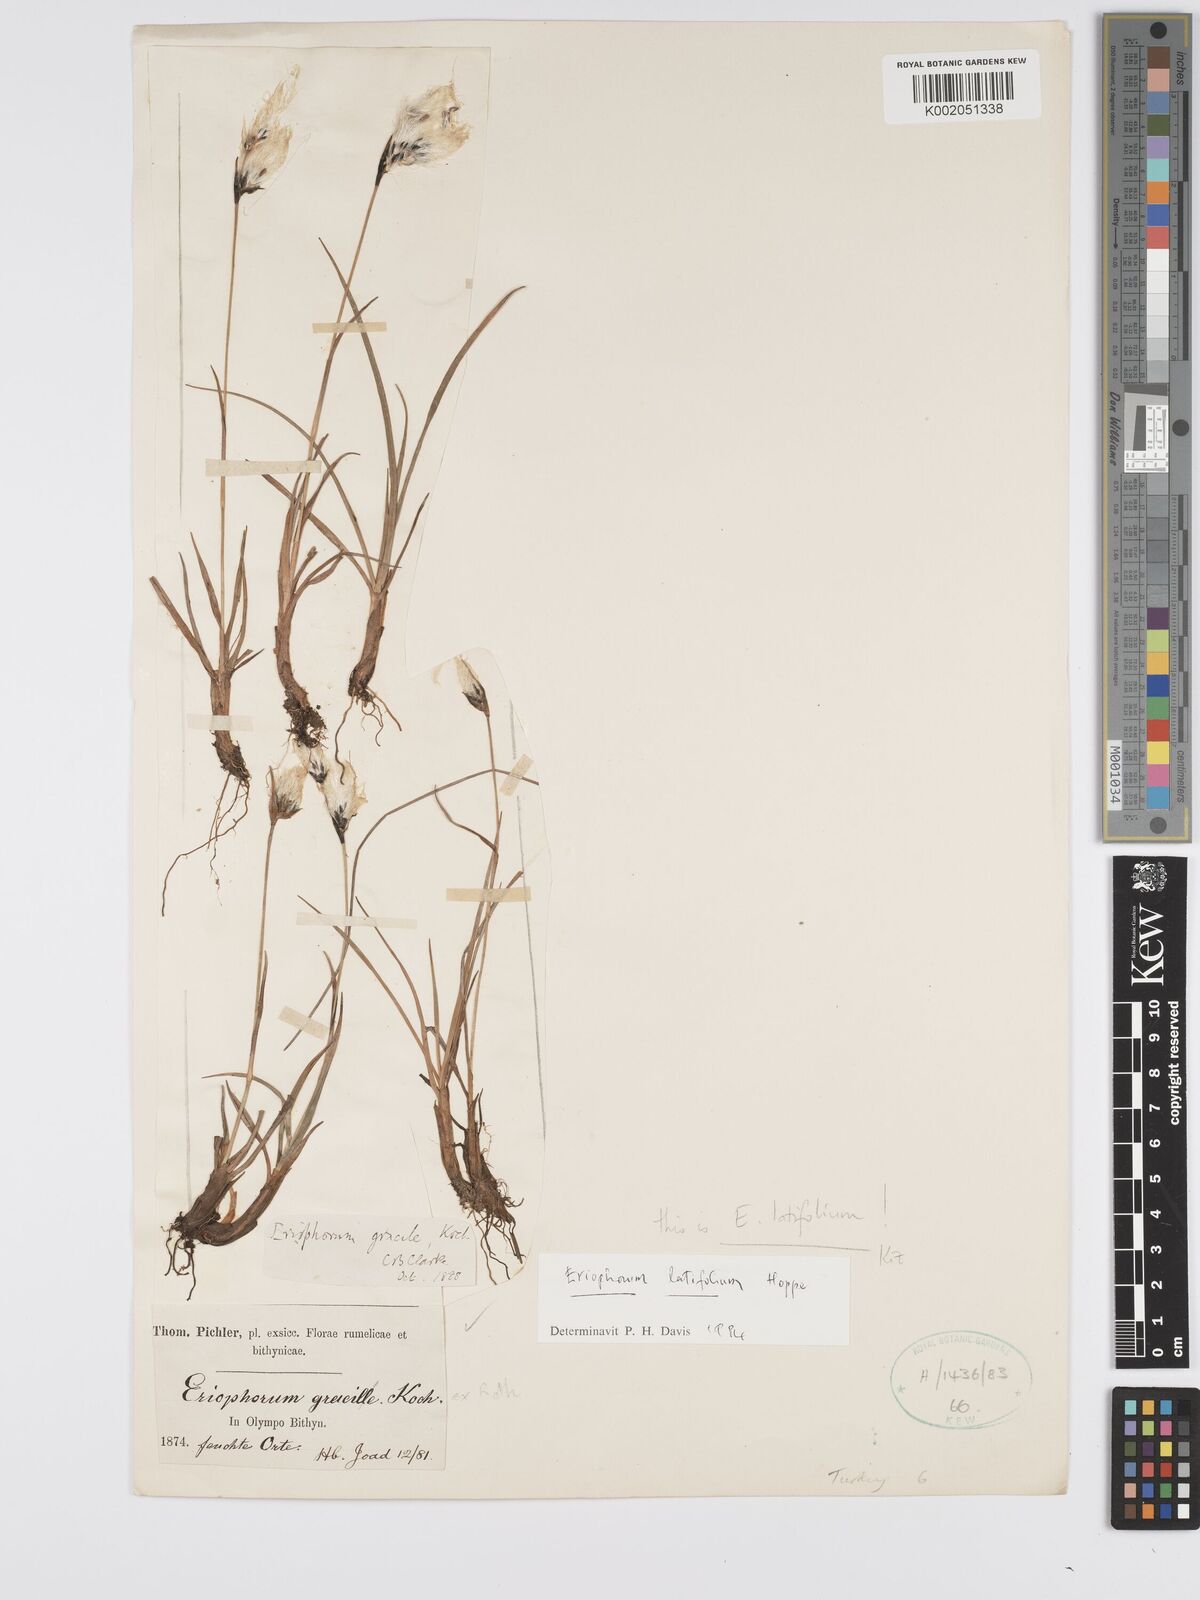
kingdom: Plantae
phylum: Tracheophyta
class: Liliopsida
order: Poales
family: Cyperaceae
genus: Eriophorum
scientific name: Eriophorum latifolium
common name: Broad-leaved cottongrass
